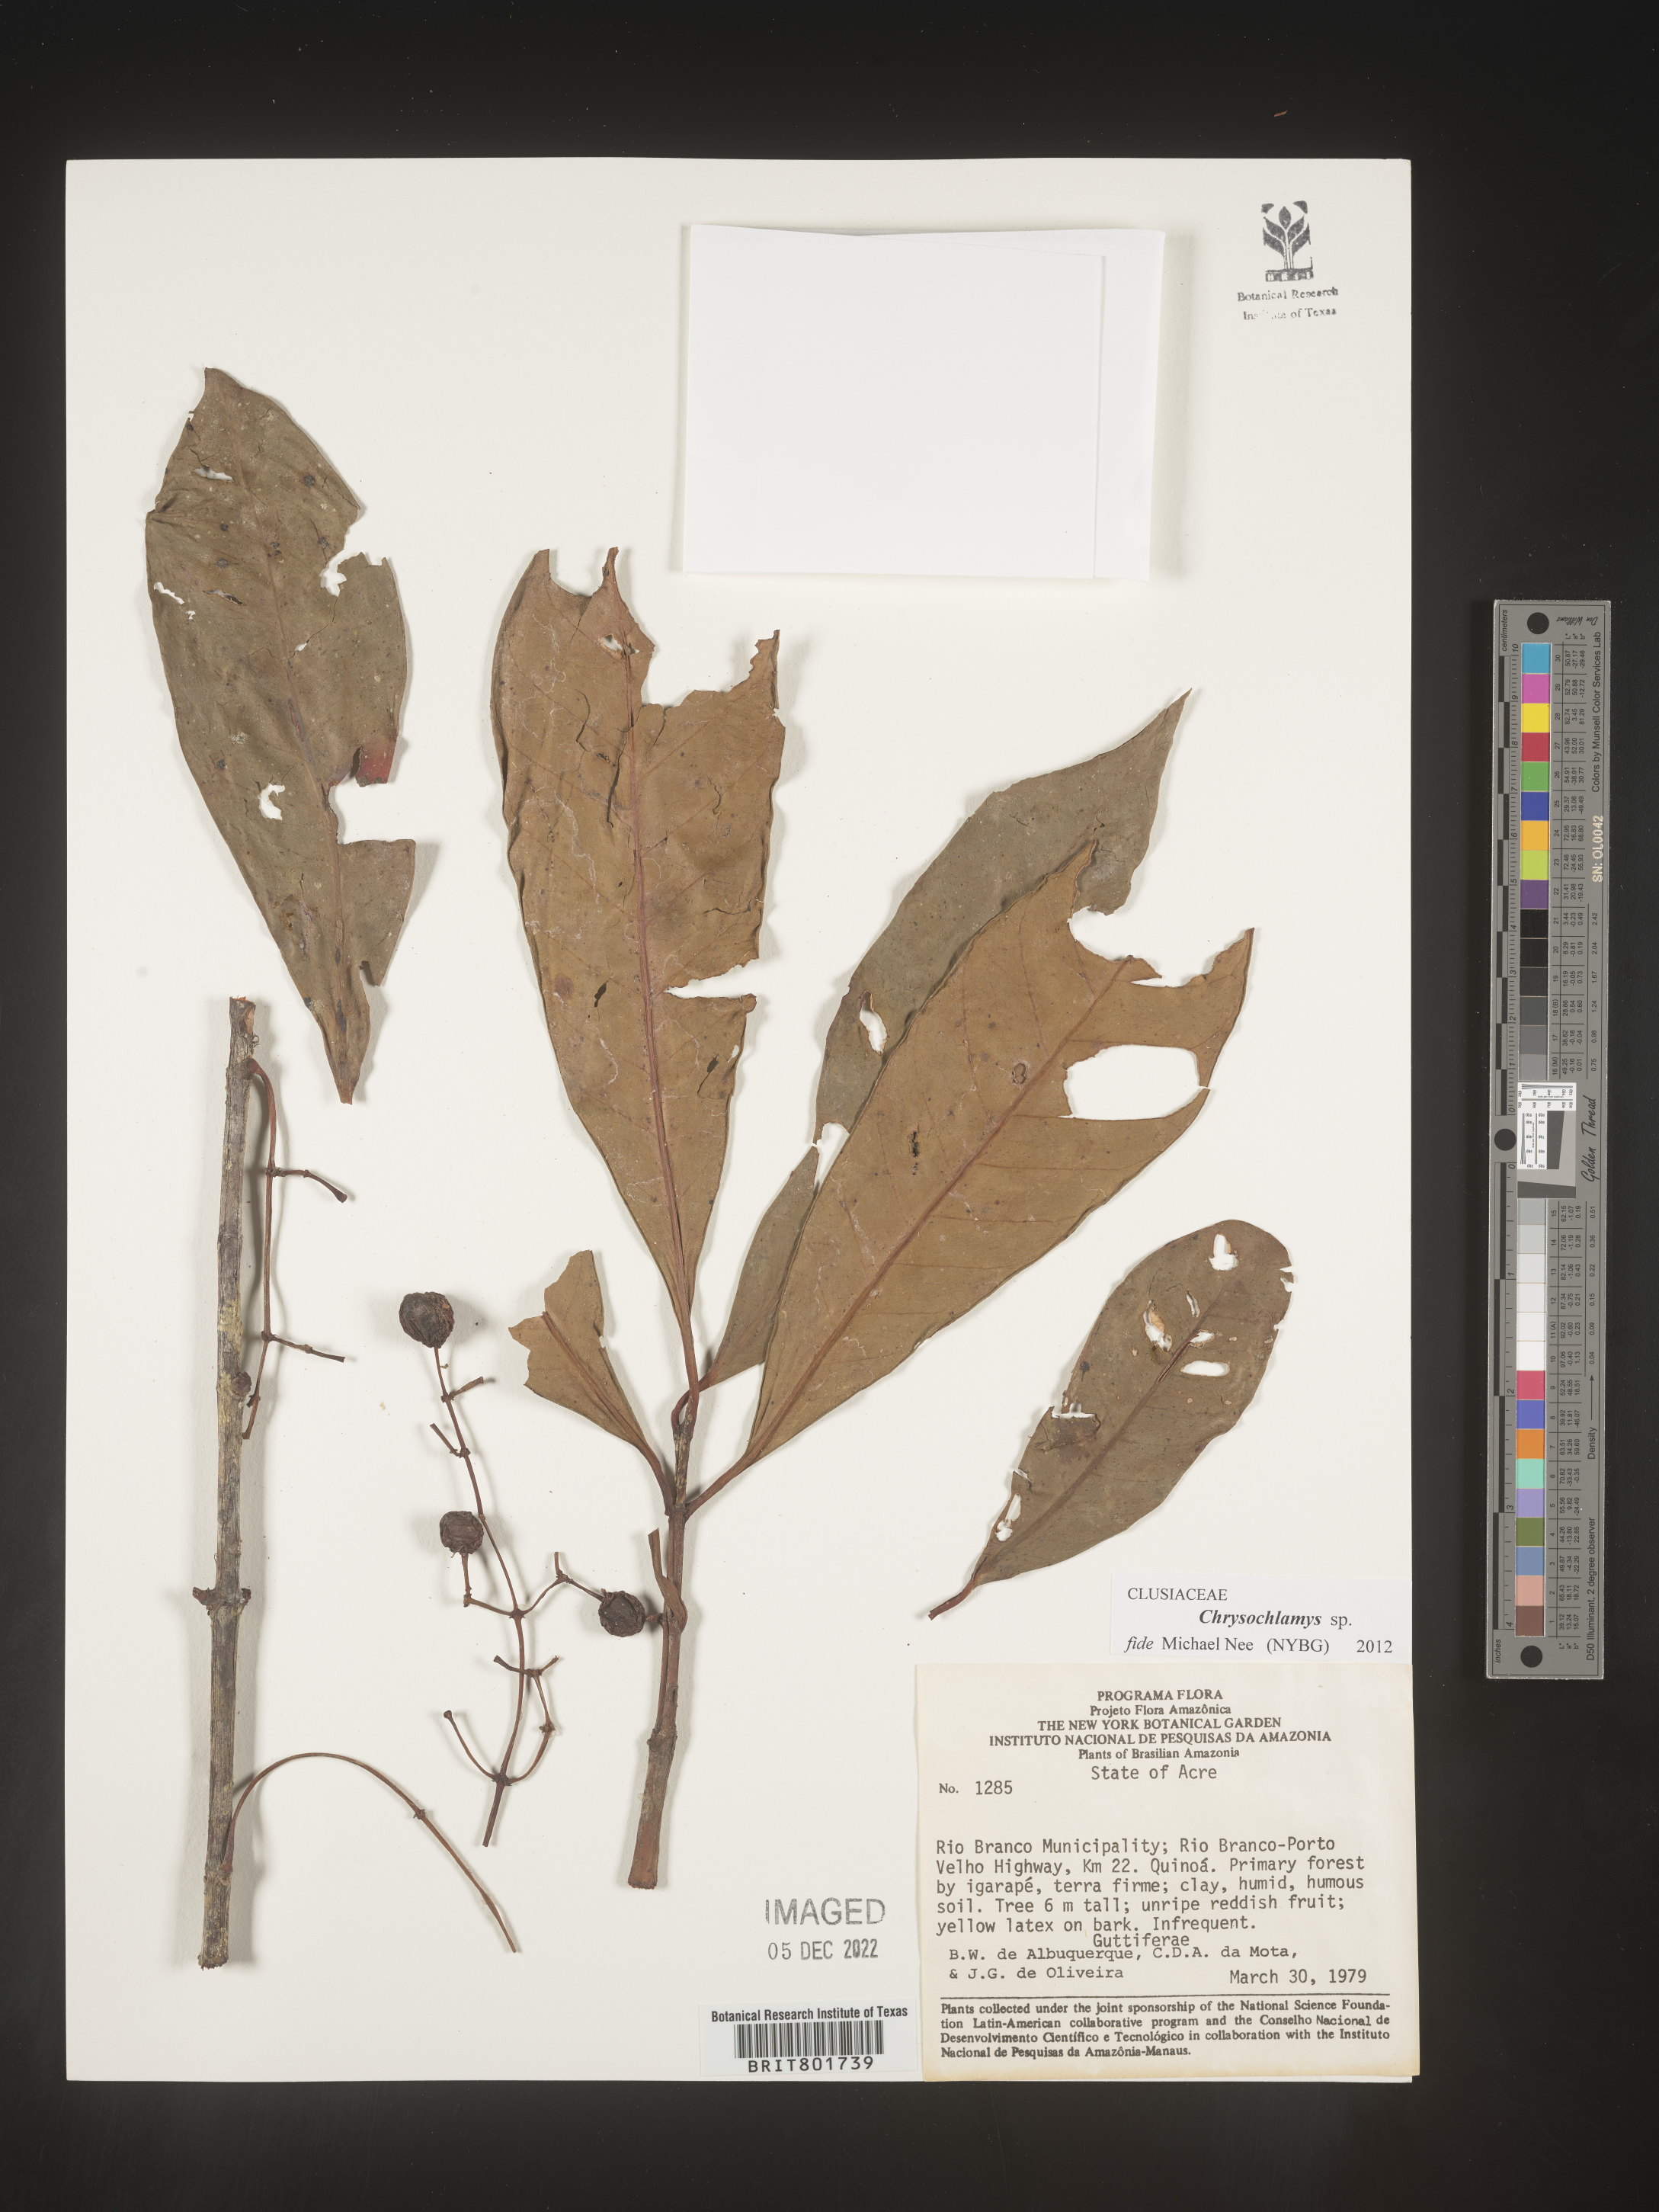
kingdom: Plantae
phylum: Tracheophyta
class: Magnoliopsida
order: Malpighiales
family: Clusiaceae
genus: Chrysochlamys
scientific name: Chrysochlamys
